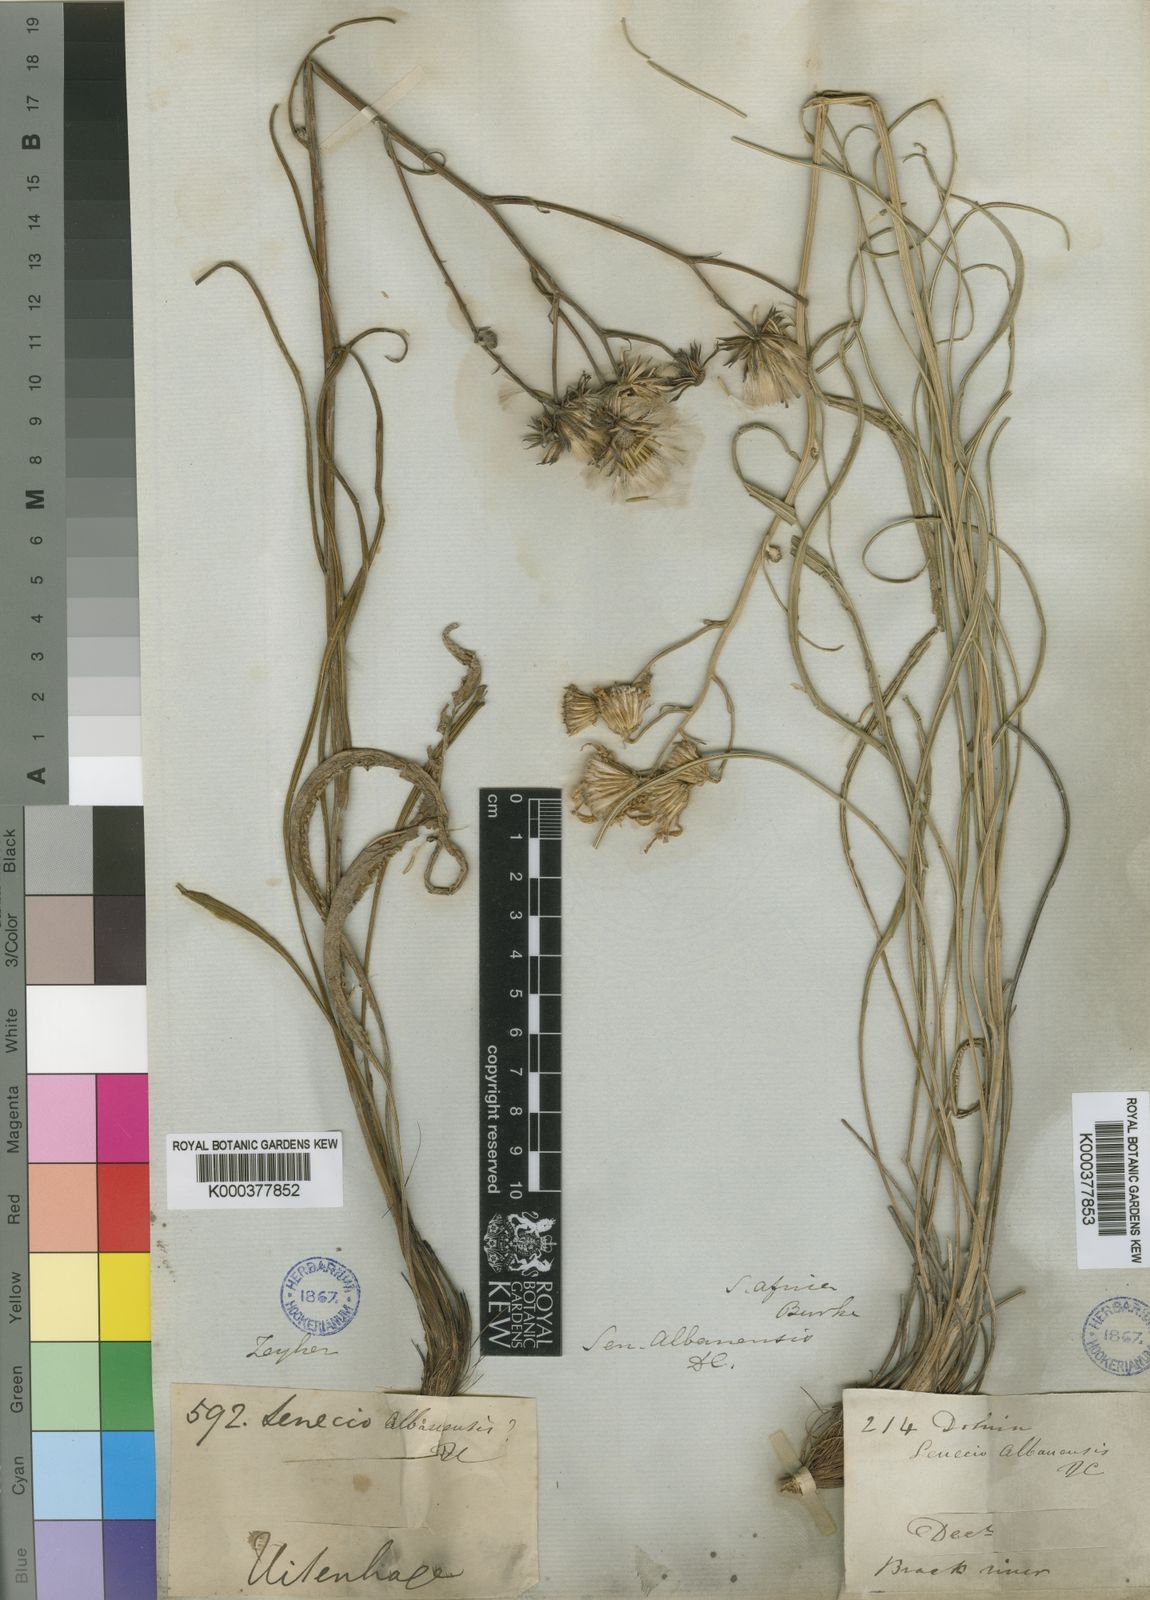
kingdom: Plantae
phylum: Tracheophyta
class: Magnoliopsida
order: Asterales
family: Asteraceae
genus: Senecio
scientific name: Senecio albanensis
